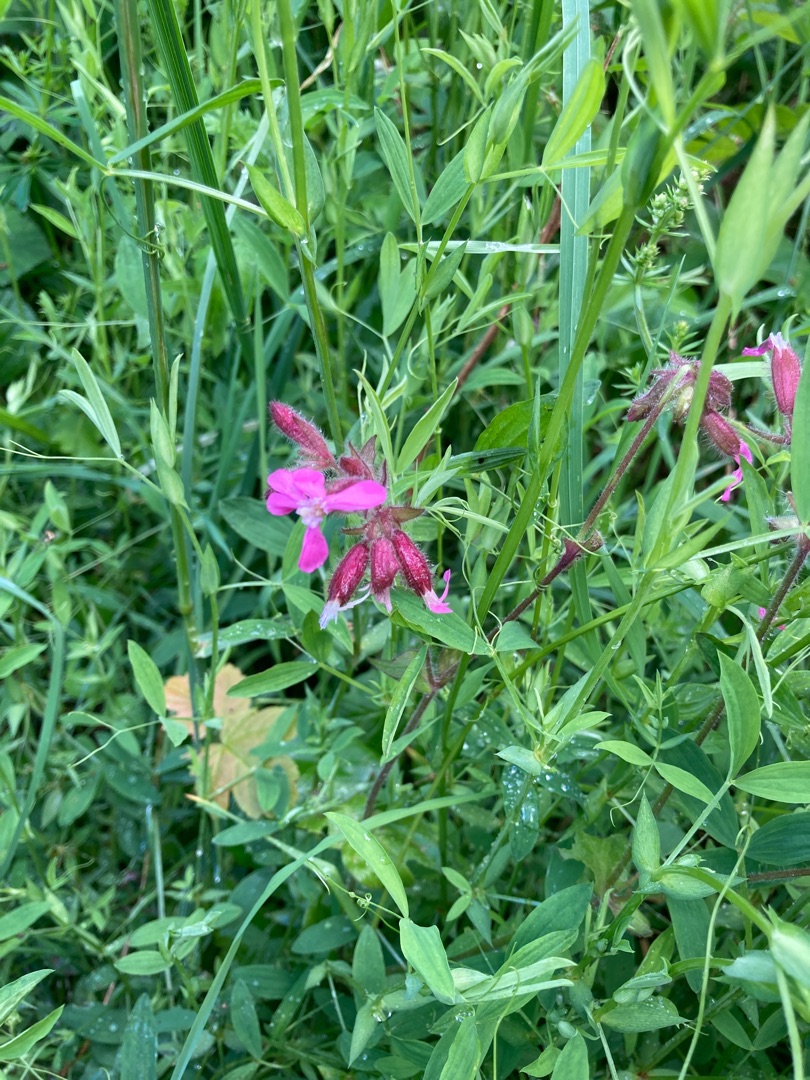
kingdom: Plantae
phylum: Tracheophyta
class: Magnoliopsida
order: Caryophyllales
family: Caryophyllaceae
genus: Silene
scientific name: Silene dioica
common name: Dagpragtstjerne
